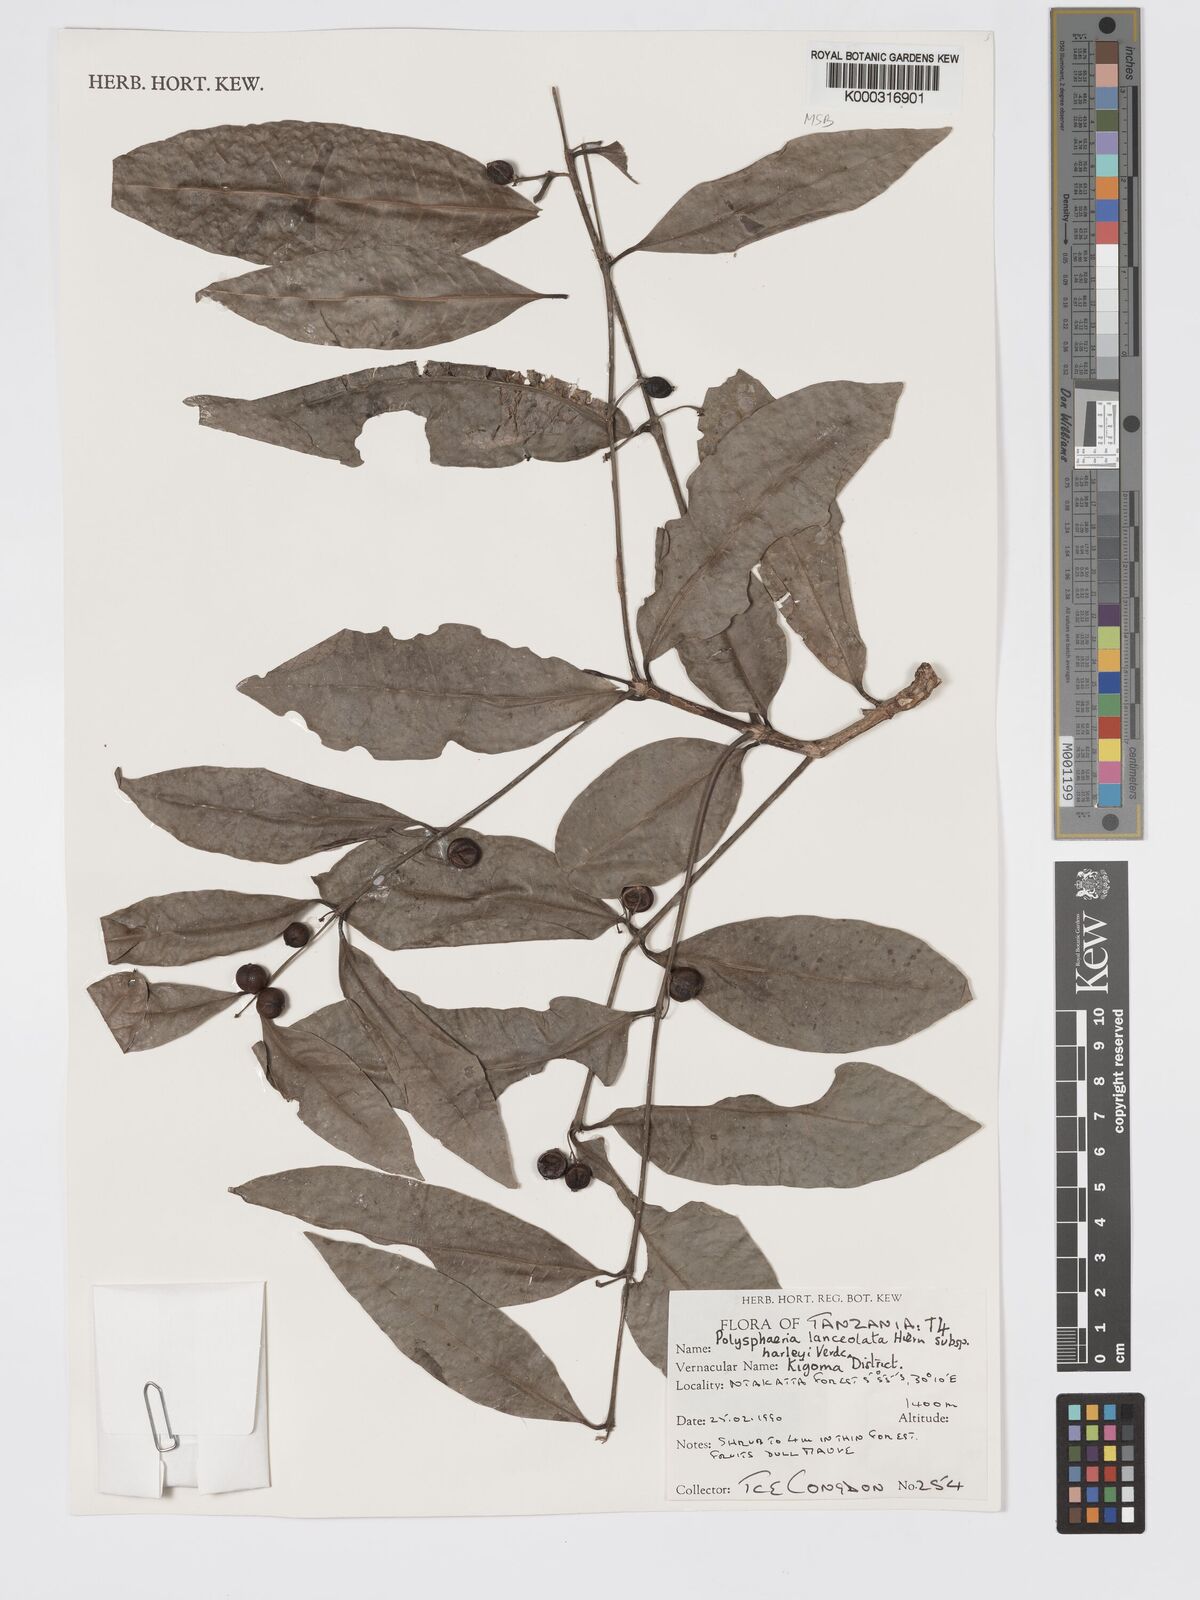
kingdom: Plantae
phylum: Tracheophyta
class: Magnoliopsida
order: Gentianales
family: Rubiaceae
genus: Polysphaeria
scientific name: Polysphaeria lanceolata
